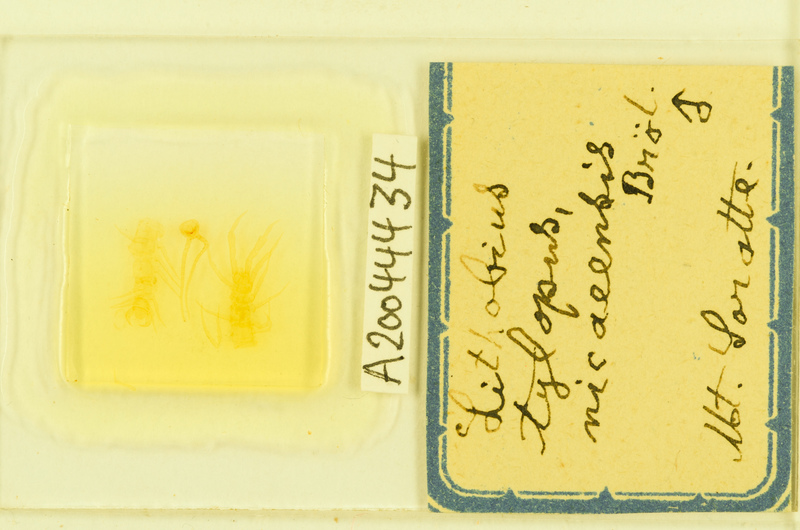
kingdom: Animalia
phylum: Arthropoda
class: Chilopoda
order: Lithobiomorpha
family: Lithobiidae
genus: Lithobius
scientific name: Lithobius tylopus
